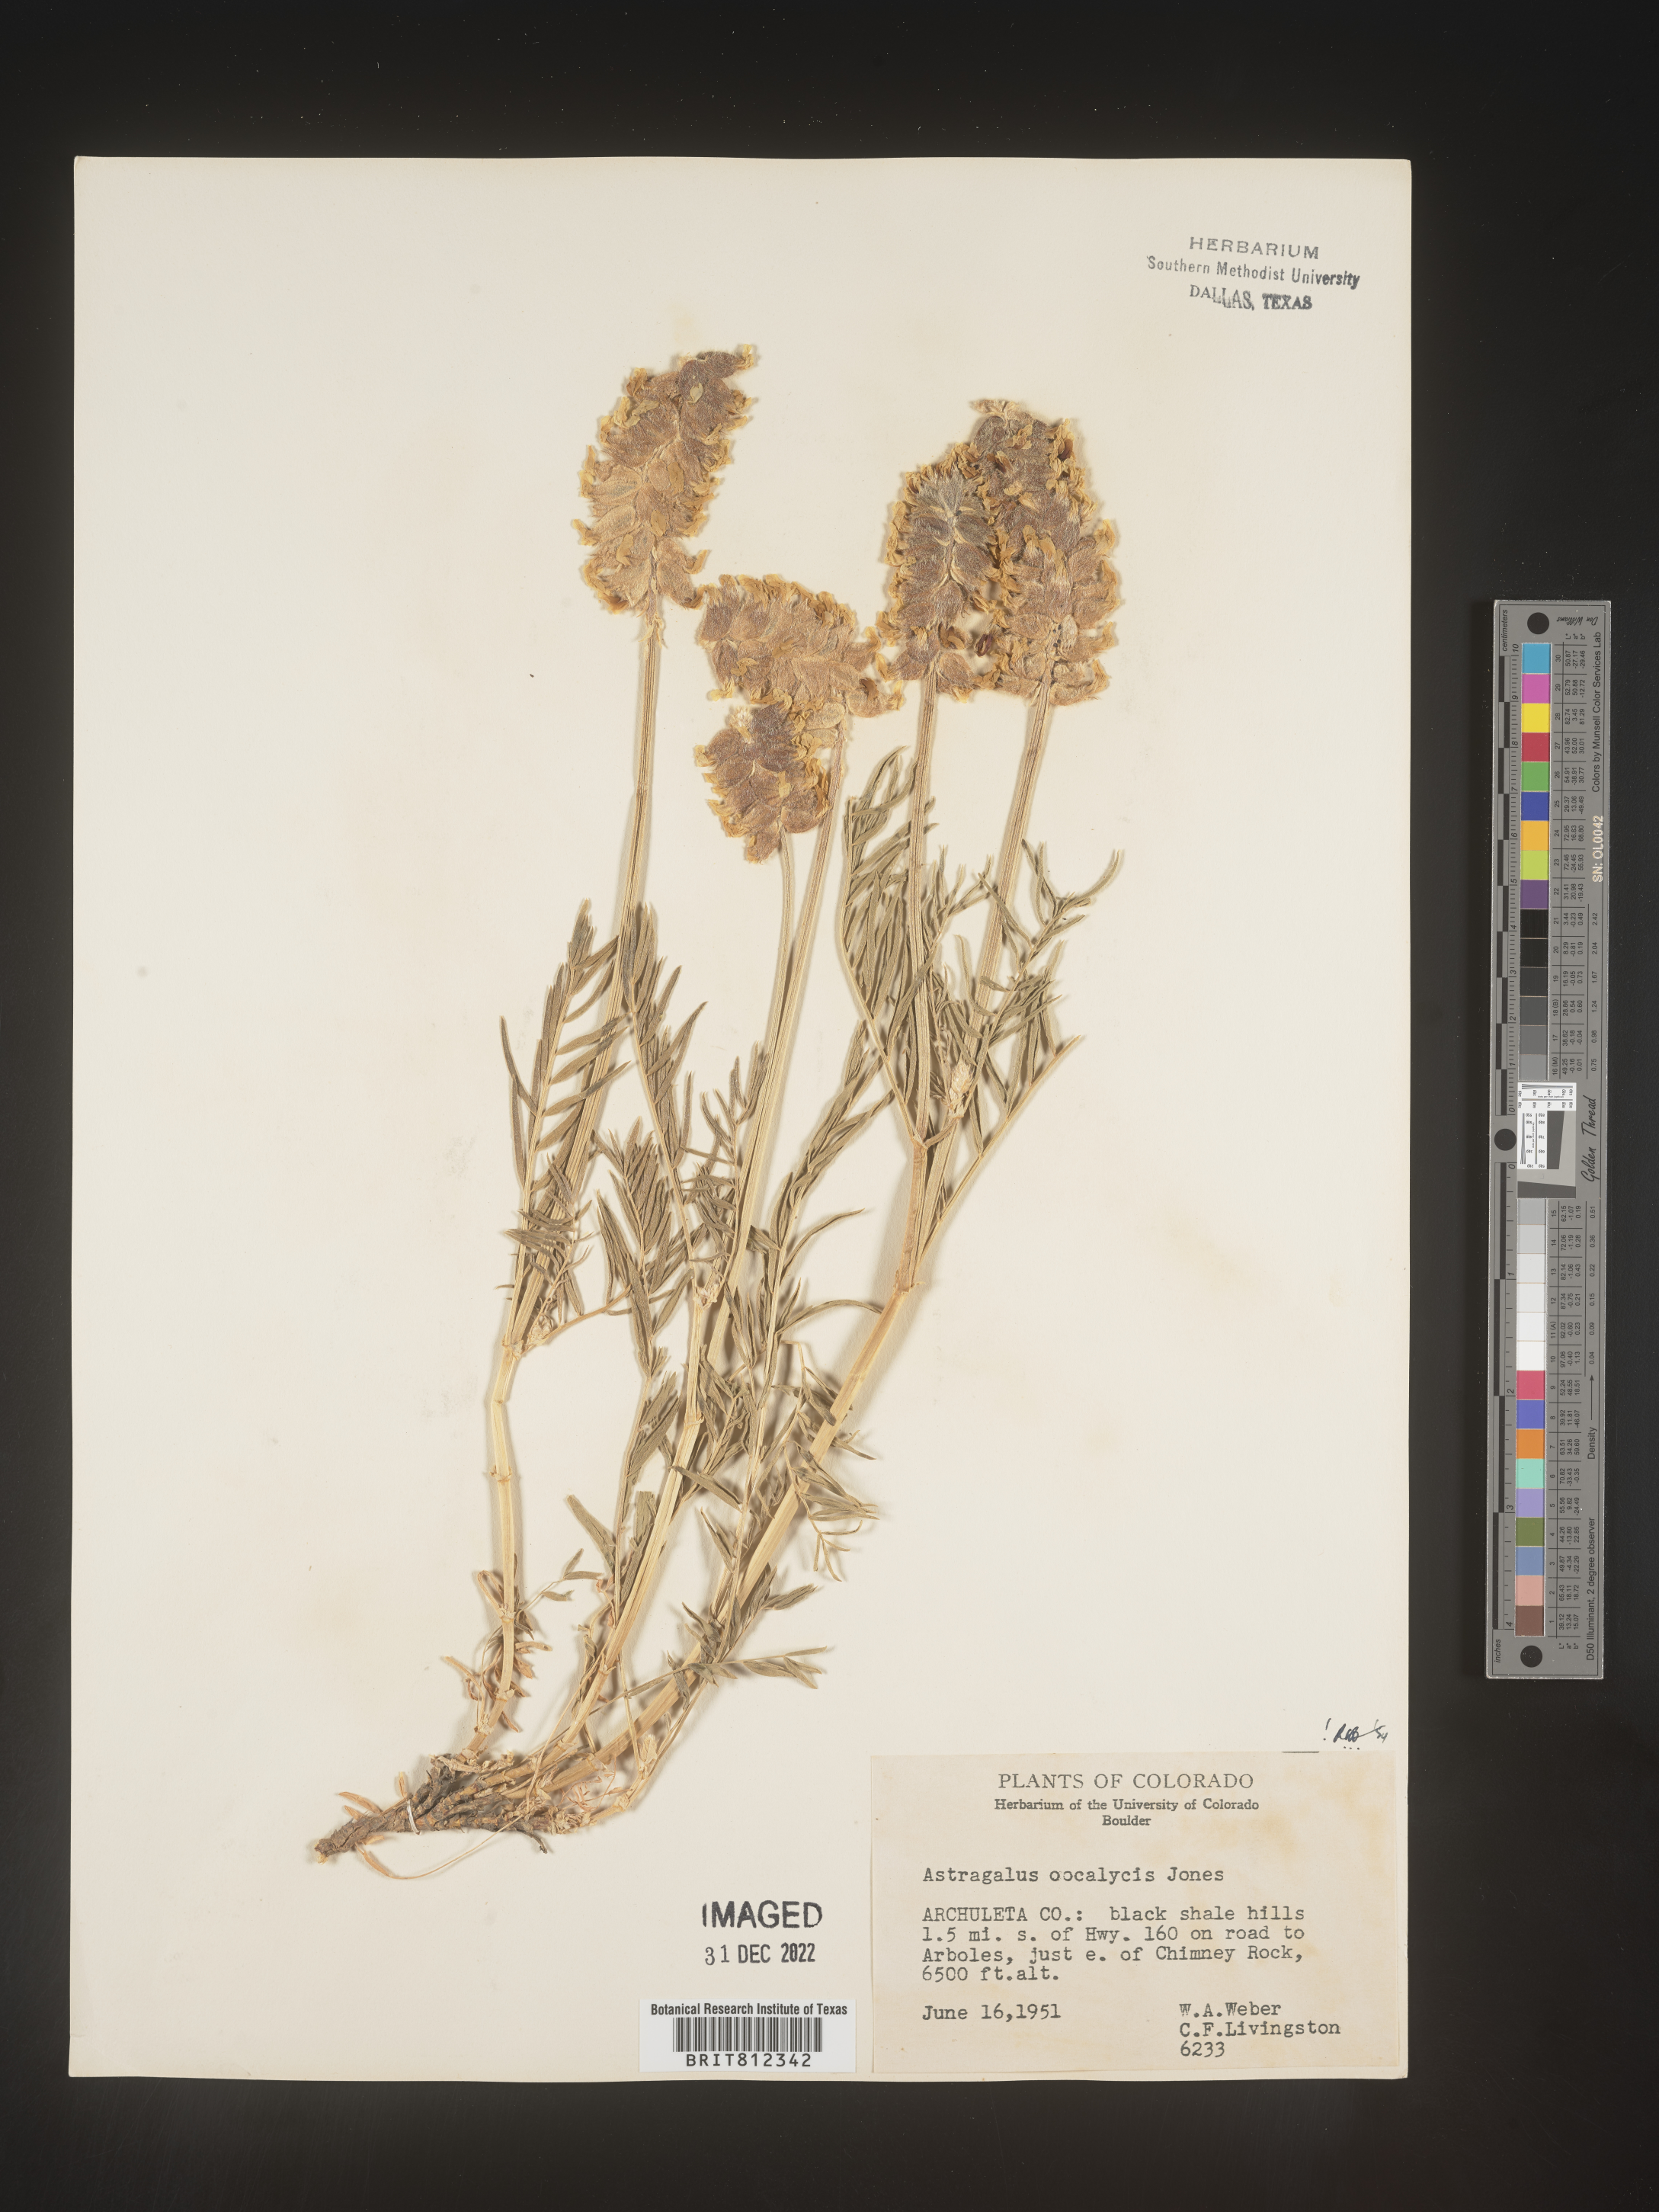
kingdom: Plantae
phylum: Tracheophyta
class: Magnoliopsida
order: Fabales
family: Fabaceae
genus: Astragalus
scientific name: Astragalus
